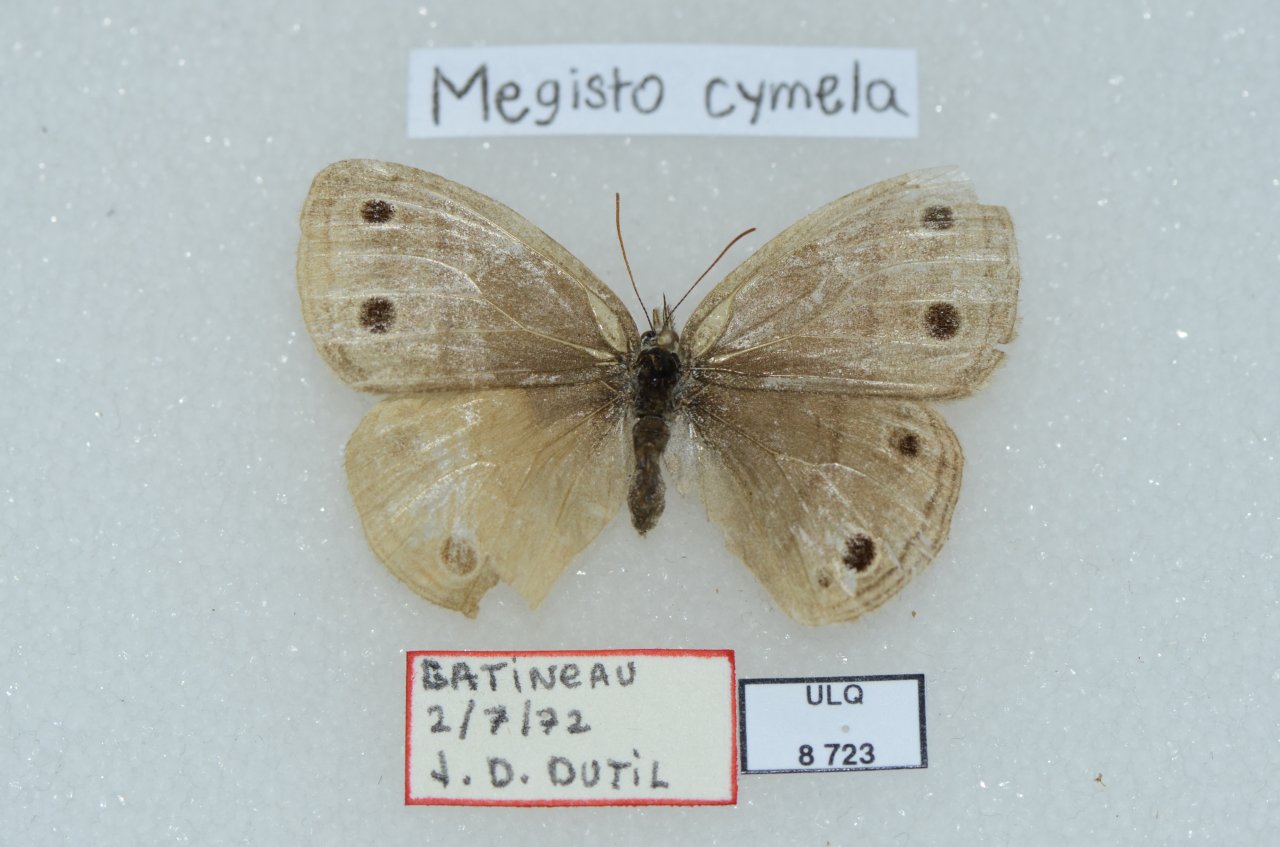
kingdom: Animalia
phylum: Arthropoda
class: Insecta
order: Lepidoptera
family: Nymphalidae
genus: Euptychia
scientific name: Euptychia cymela
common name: Little Wood Satyr
